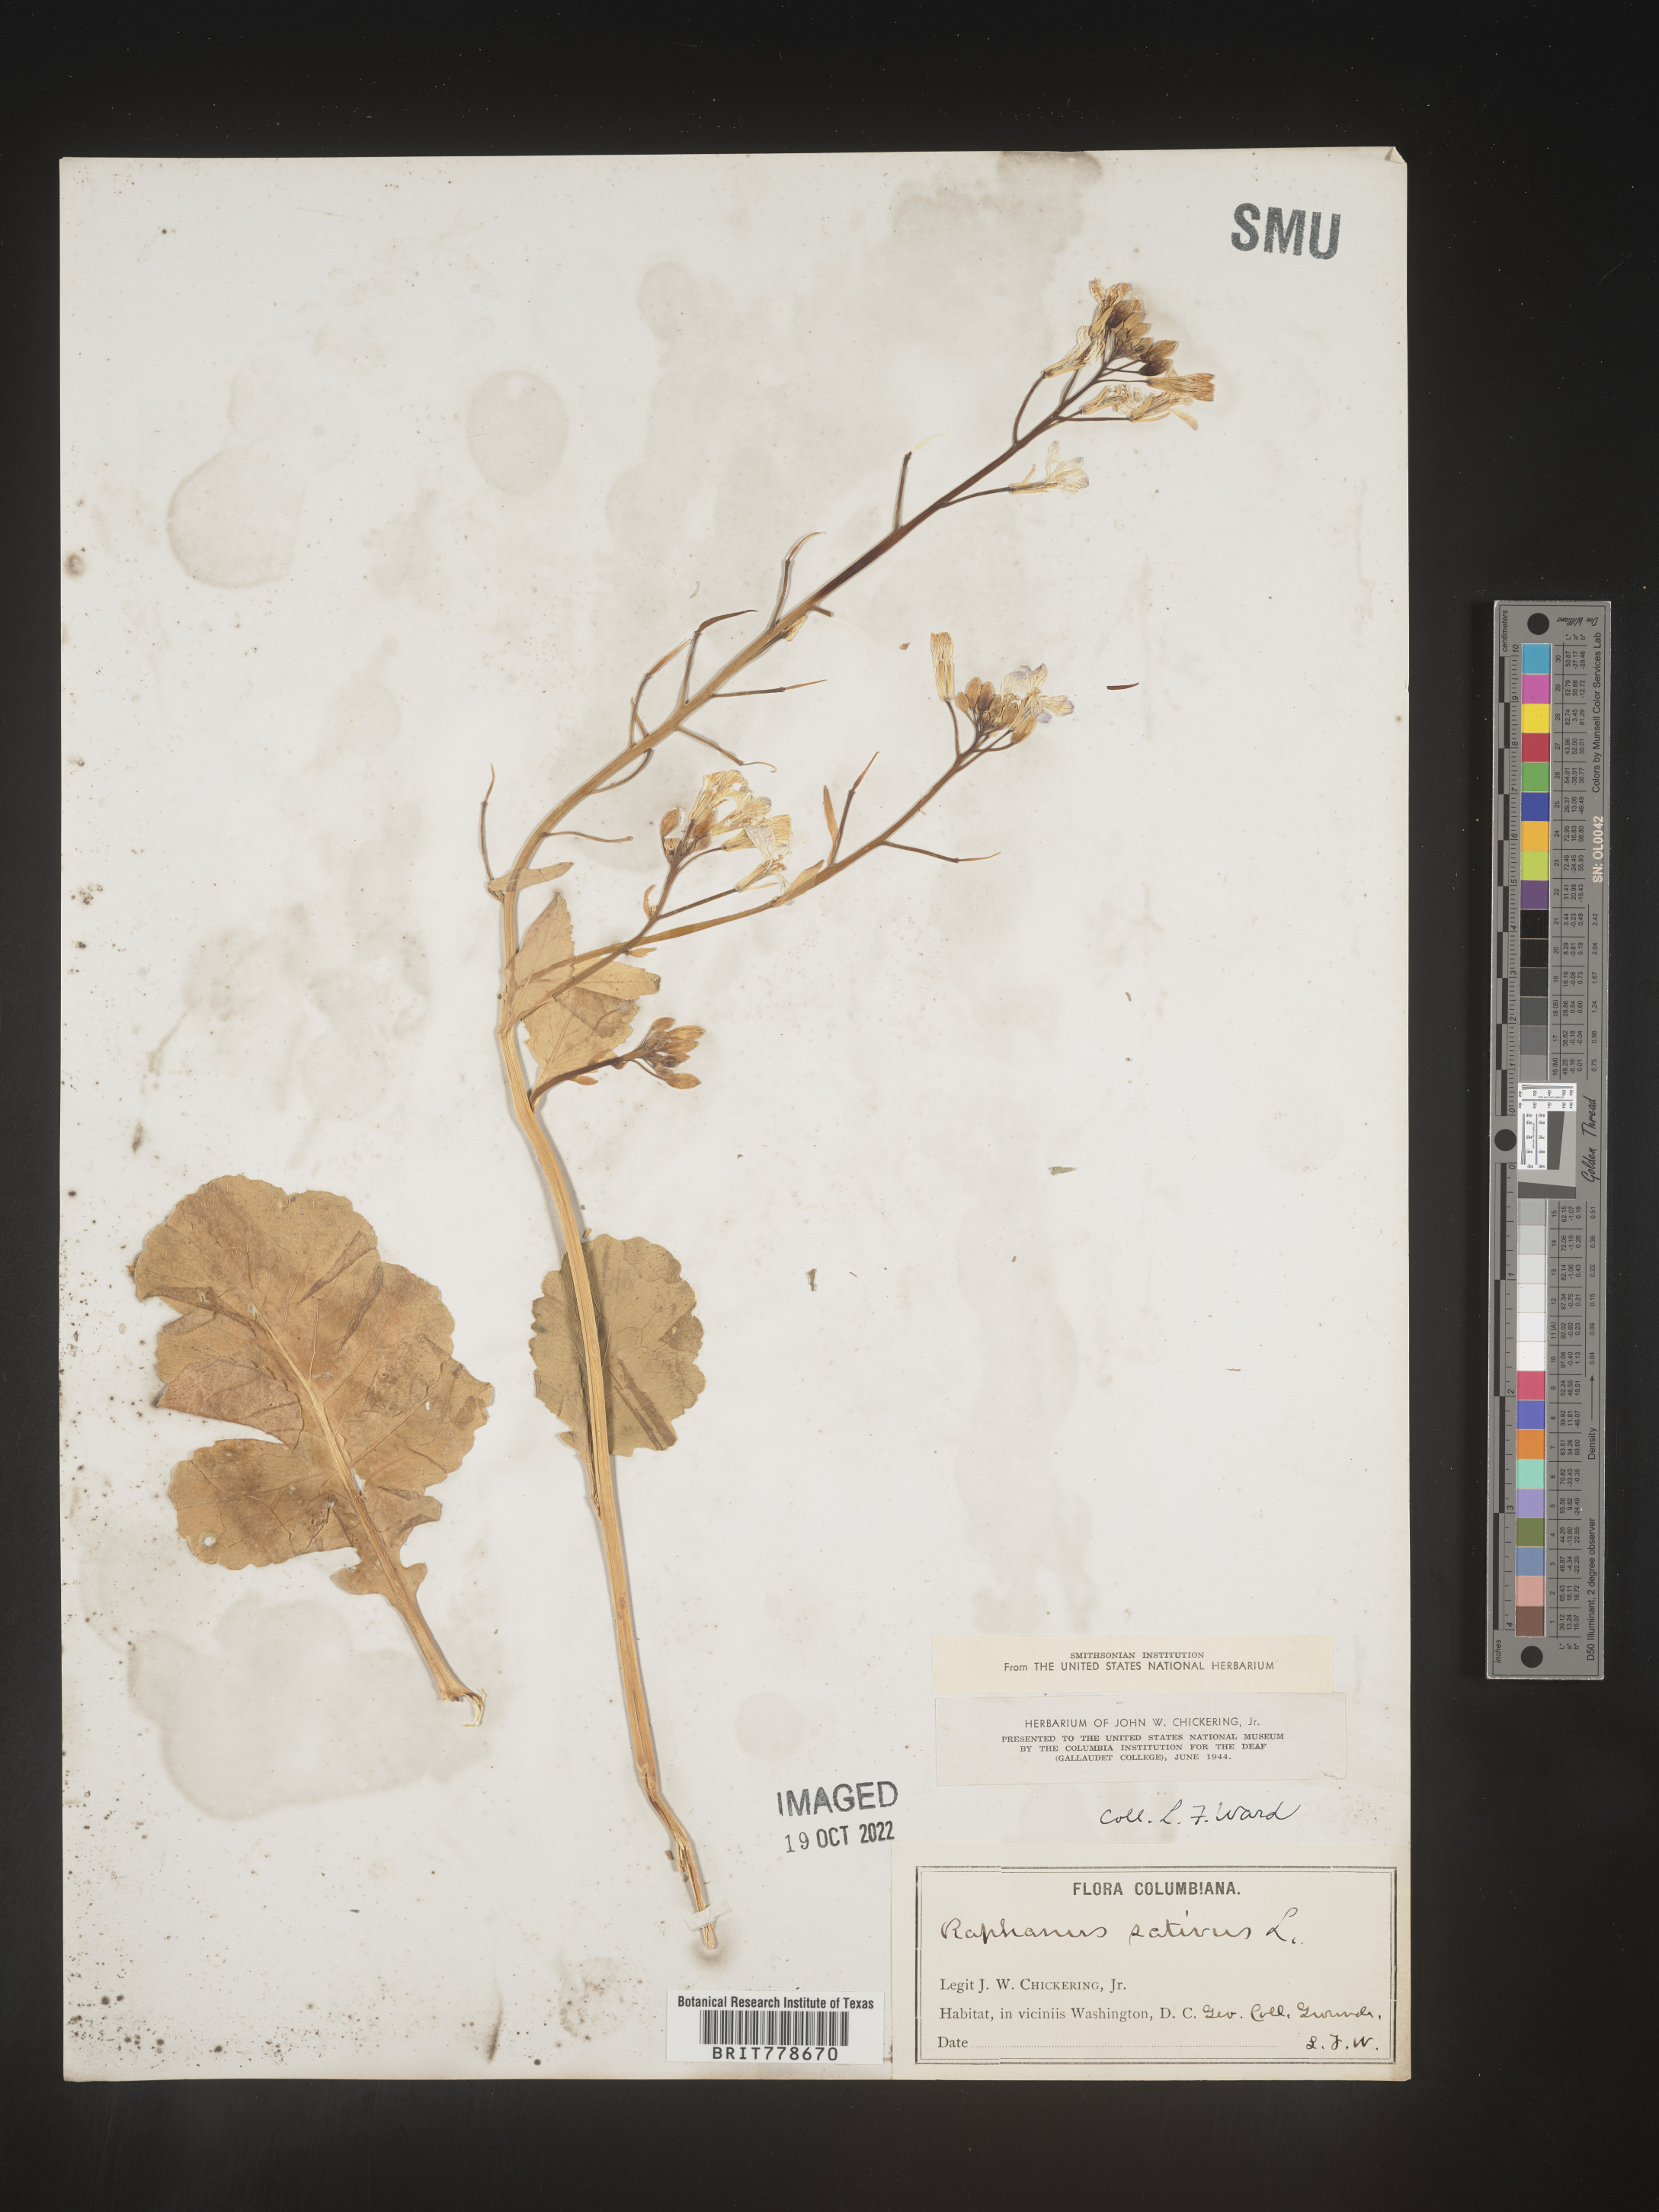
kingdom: Plantae
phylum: Tracheophyta
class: Magnoliopsida
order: Brassicales
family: Brassicaceae
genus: Raphanus
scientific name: Raphanus sativus
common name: Cultivated radish
